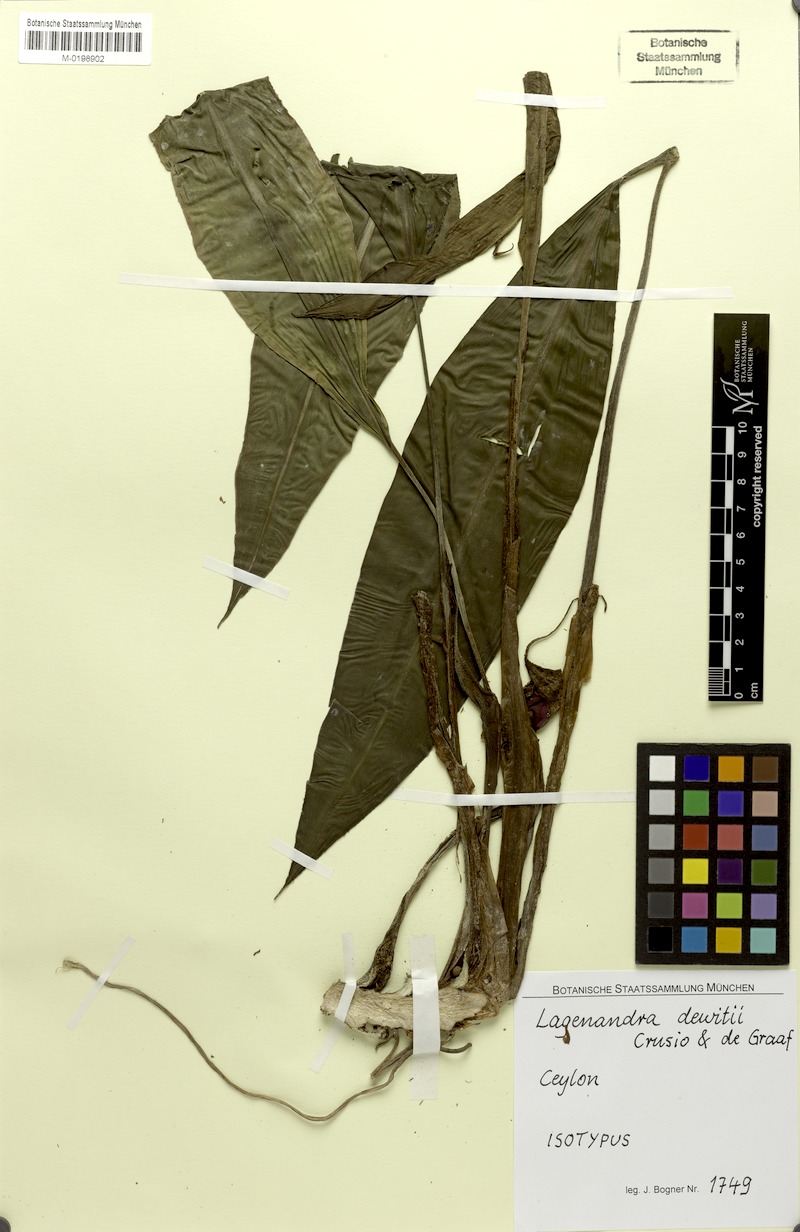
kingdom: Plantae
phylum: Tracheophyta
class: Liliopsida
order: Alismatales
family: Araceae
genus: Lagenandra
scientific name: Lagenandra dewitii
